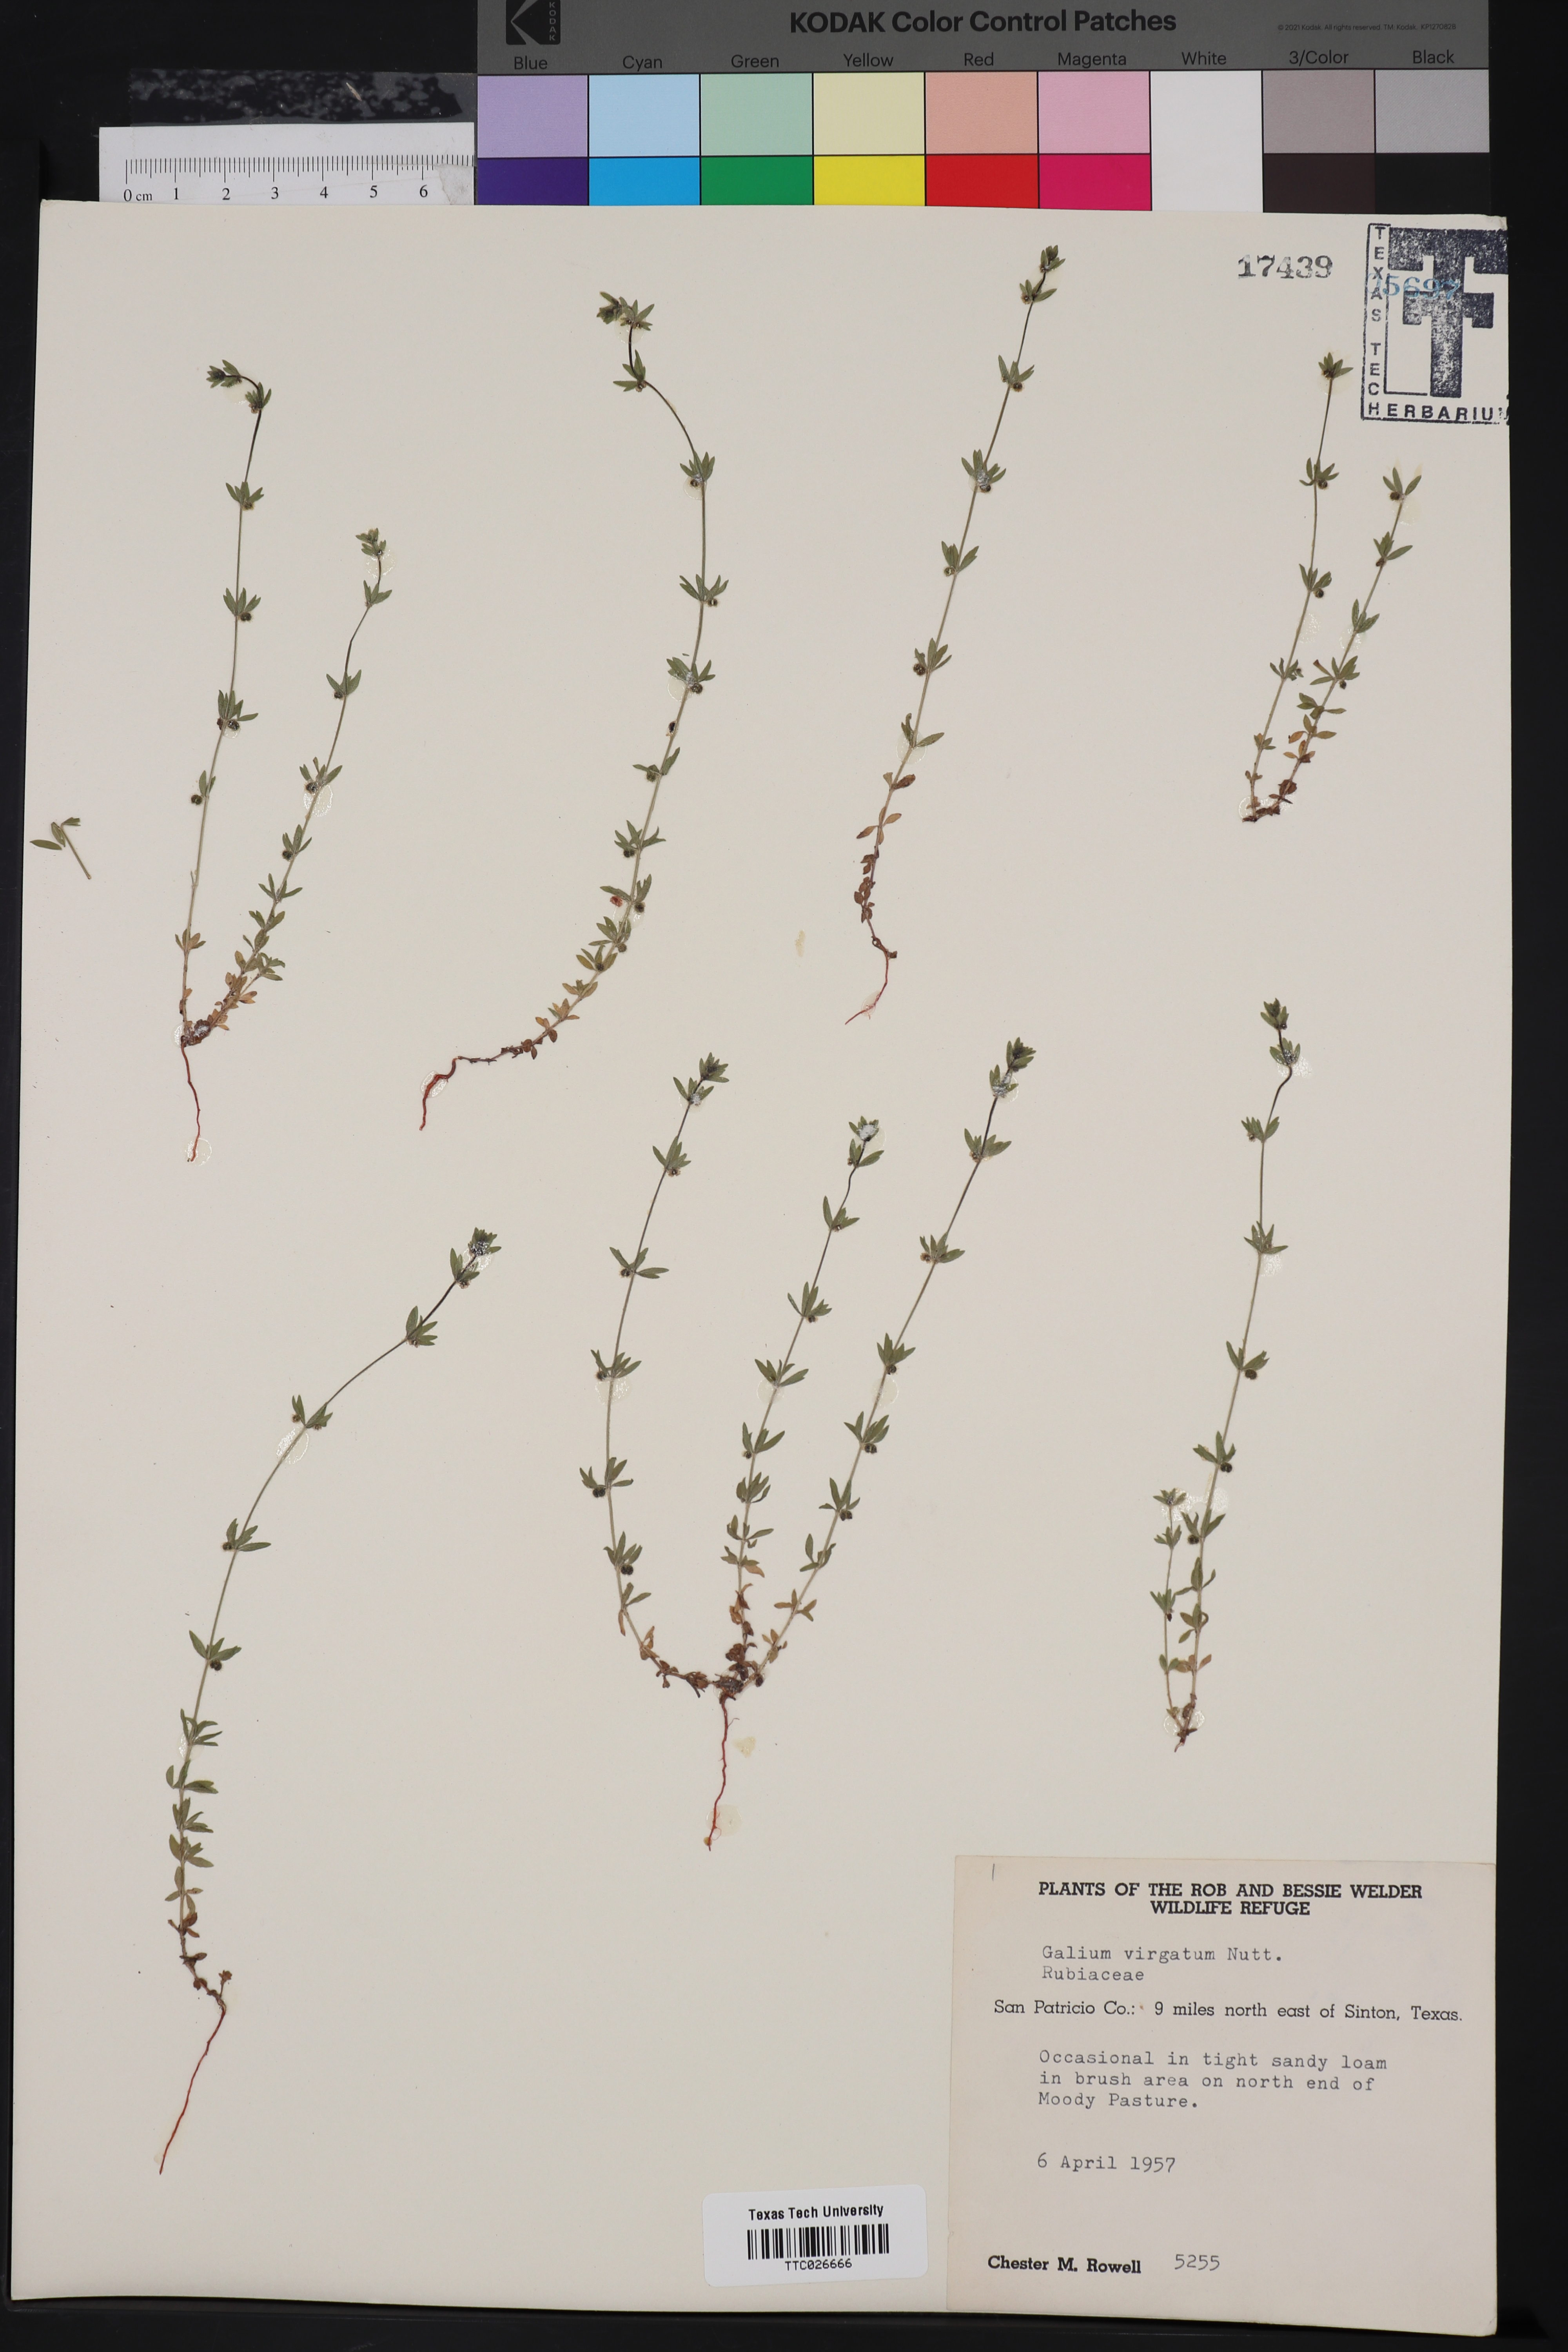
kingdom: Plantae
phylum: Tracheophyta
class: Magnoliopsida
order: Gentianales
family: Rubiaceae
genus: Galium
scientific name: Galium virgatum
